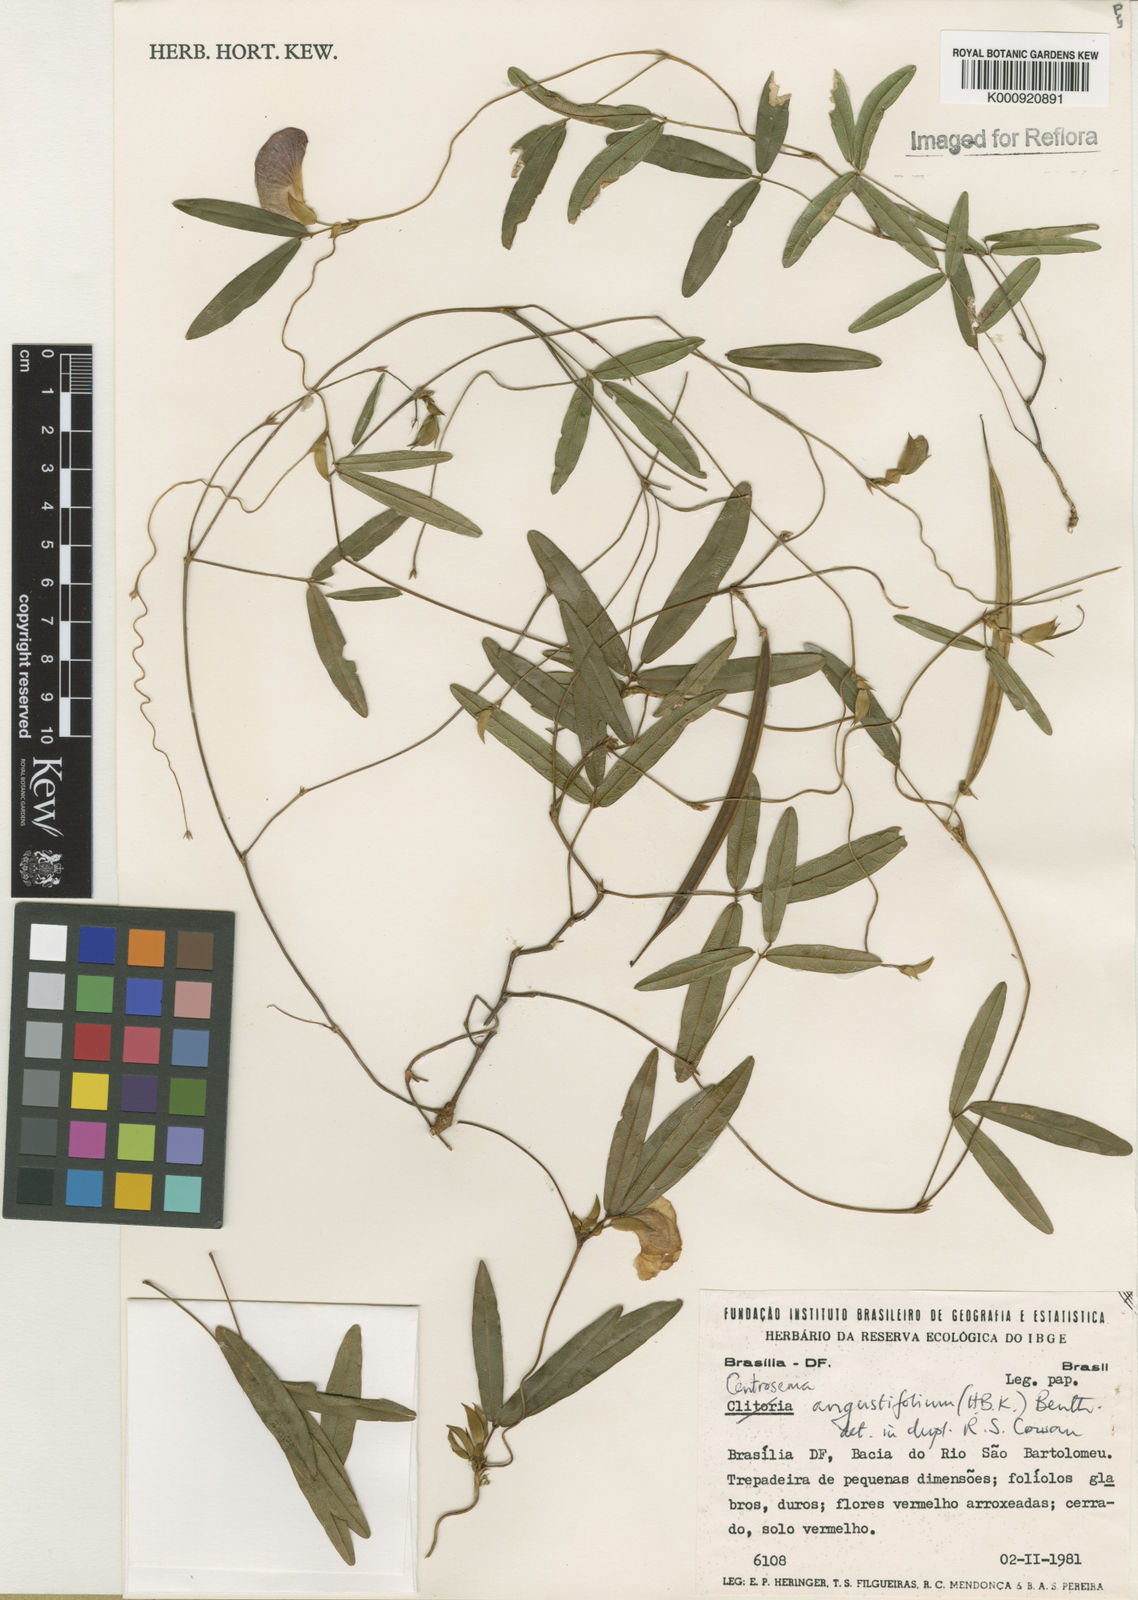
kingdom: Plantae
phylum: Tracheophyta
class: Magnoliopsida
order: Fabales
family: Fabaceae
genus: Centrosema
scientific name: Centrosema brasilianum
